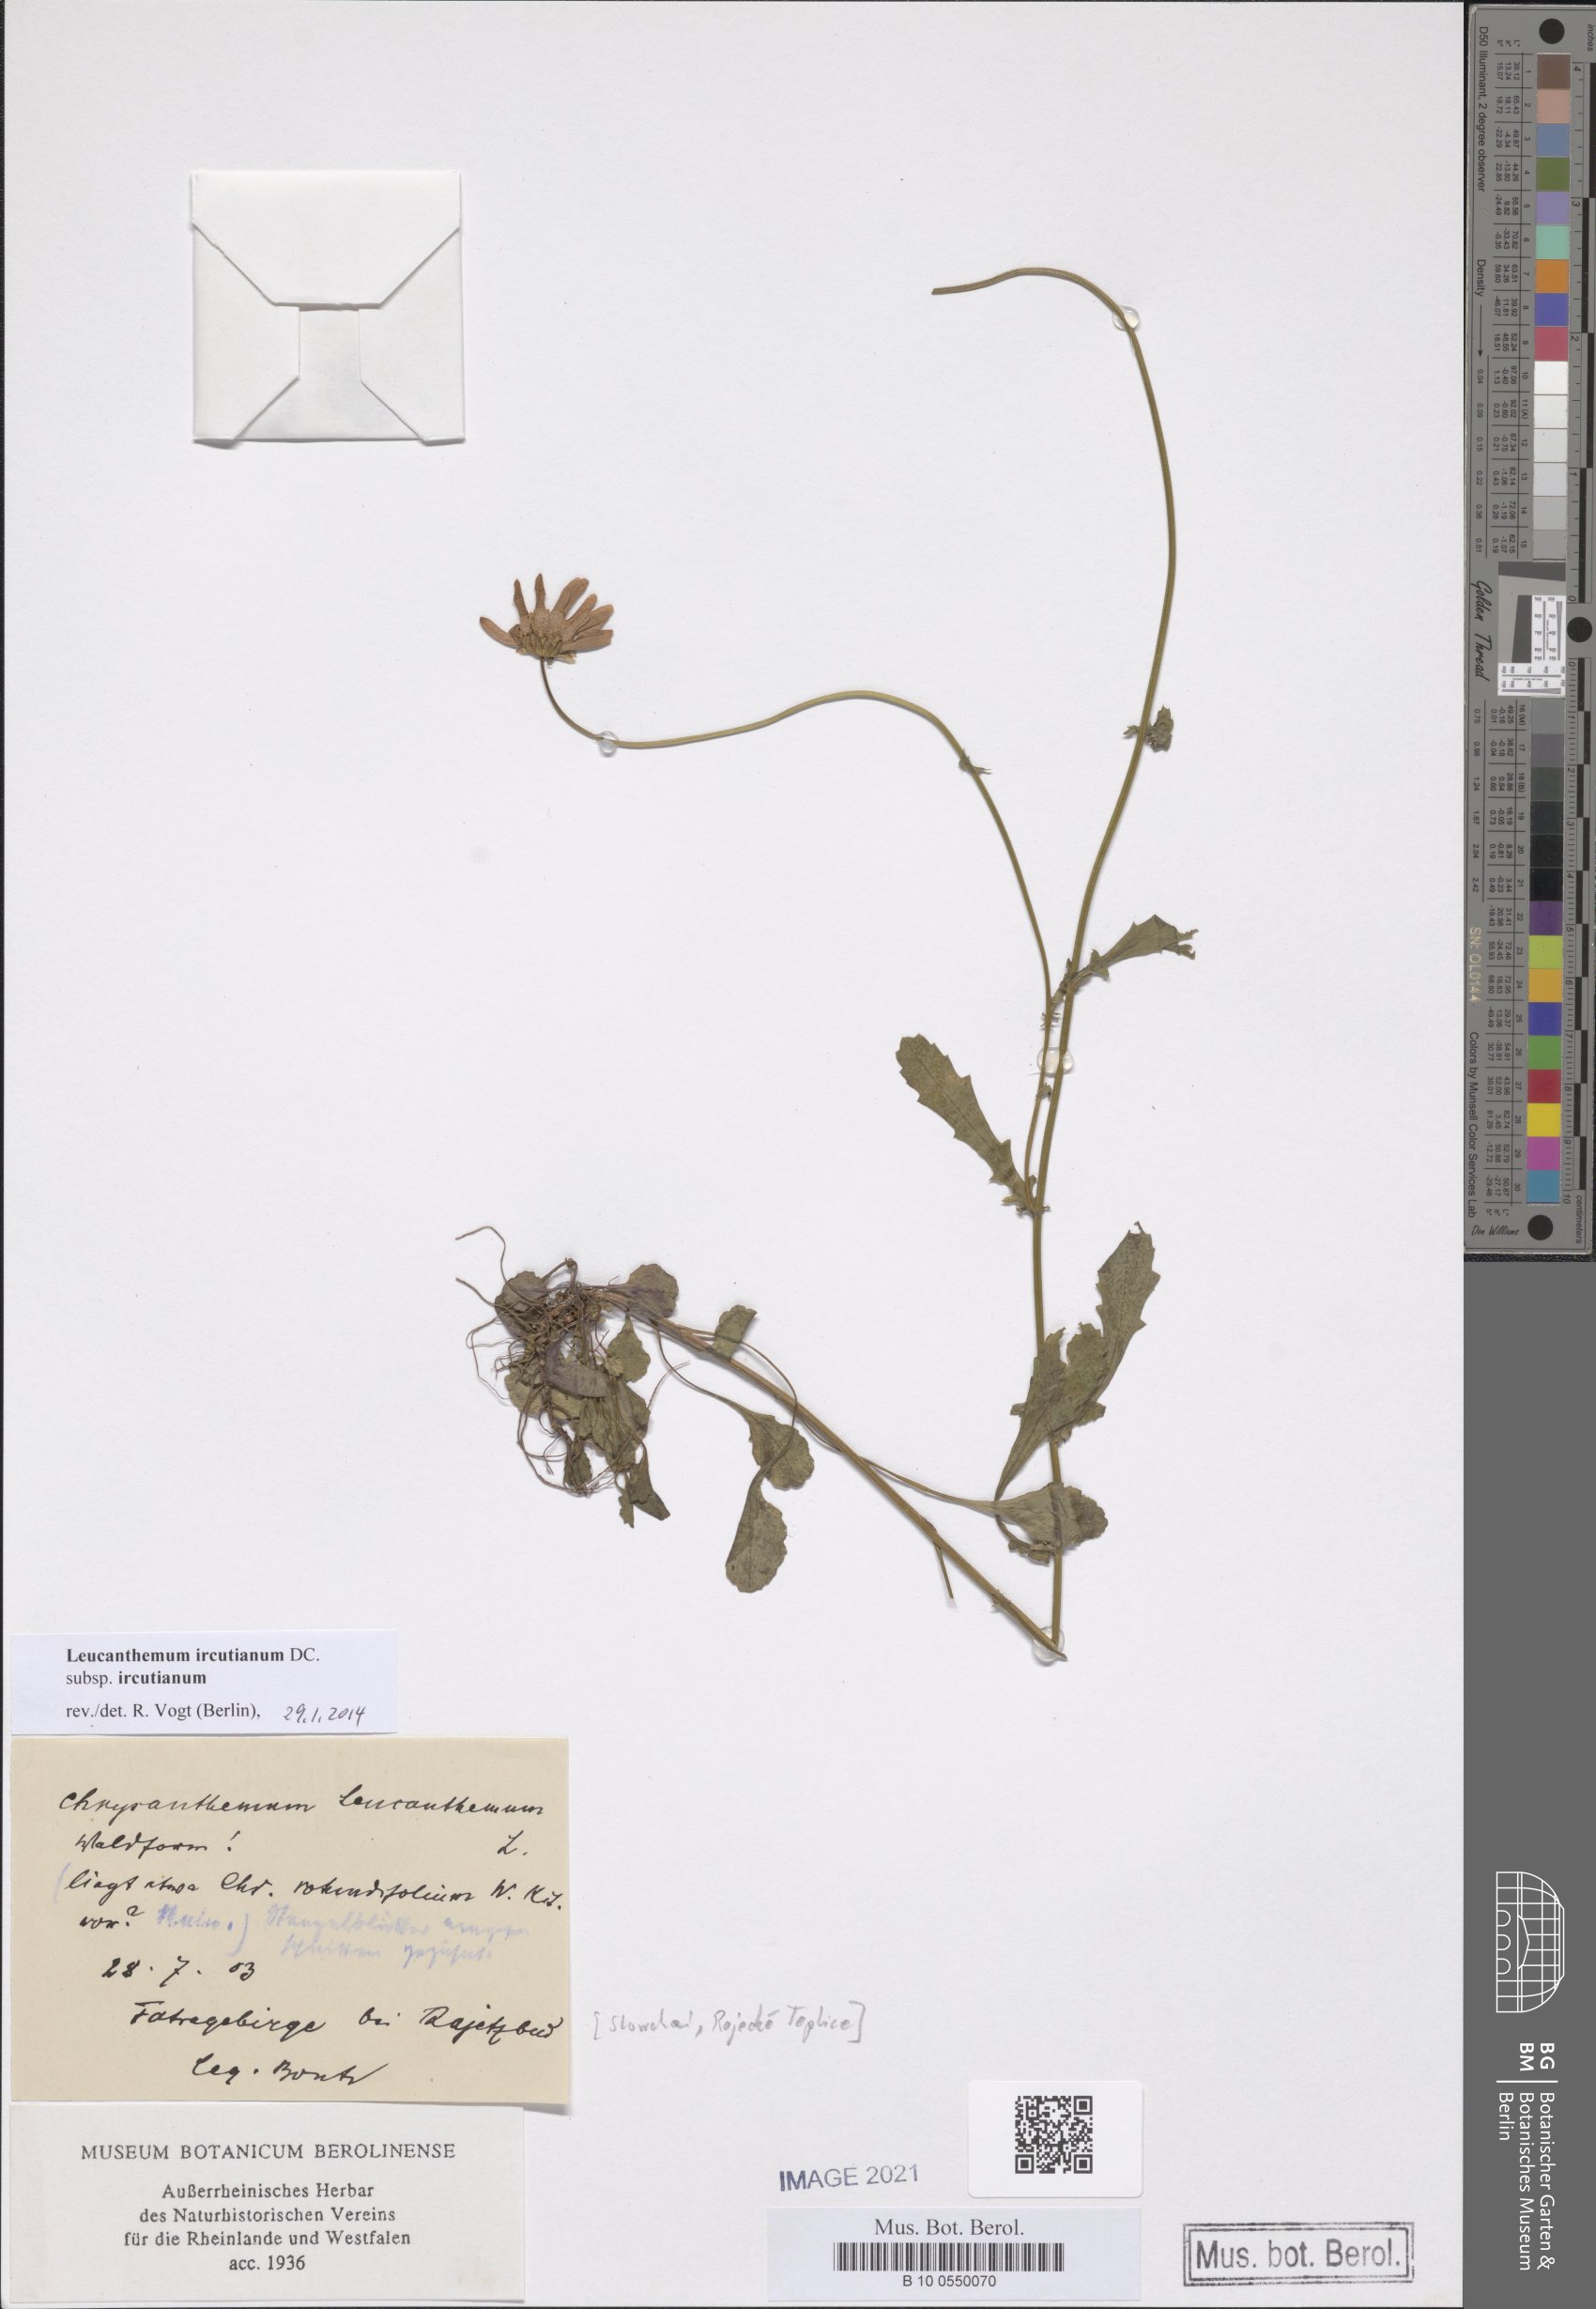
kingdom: Plantae
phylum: Tracheophyta
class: Magnoliopsida
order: Asterales
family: Asteraceae
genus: Leucanthemum
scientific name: Leucanthemum ircutianum
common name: Daisy
